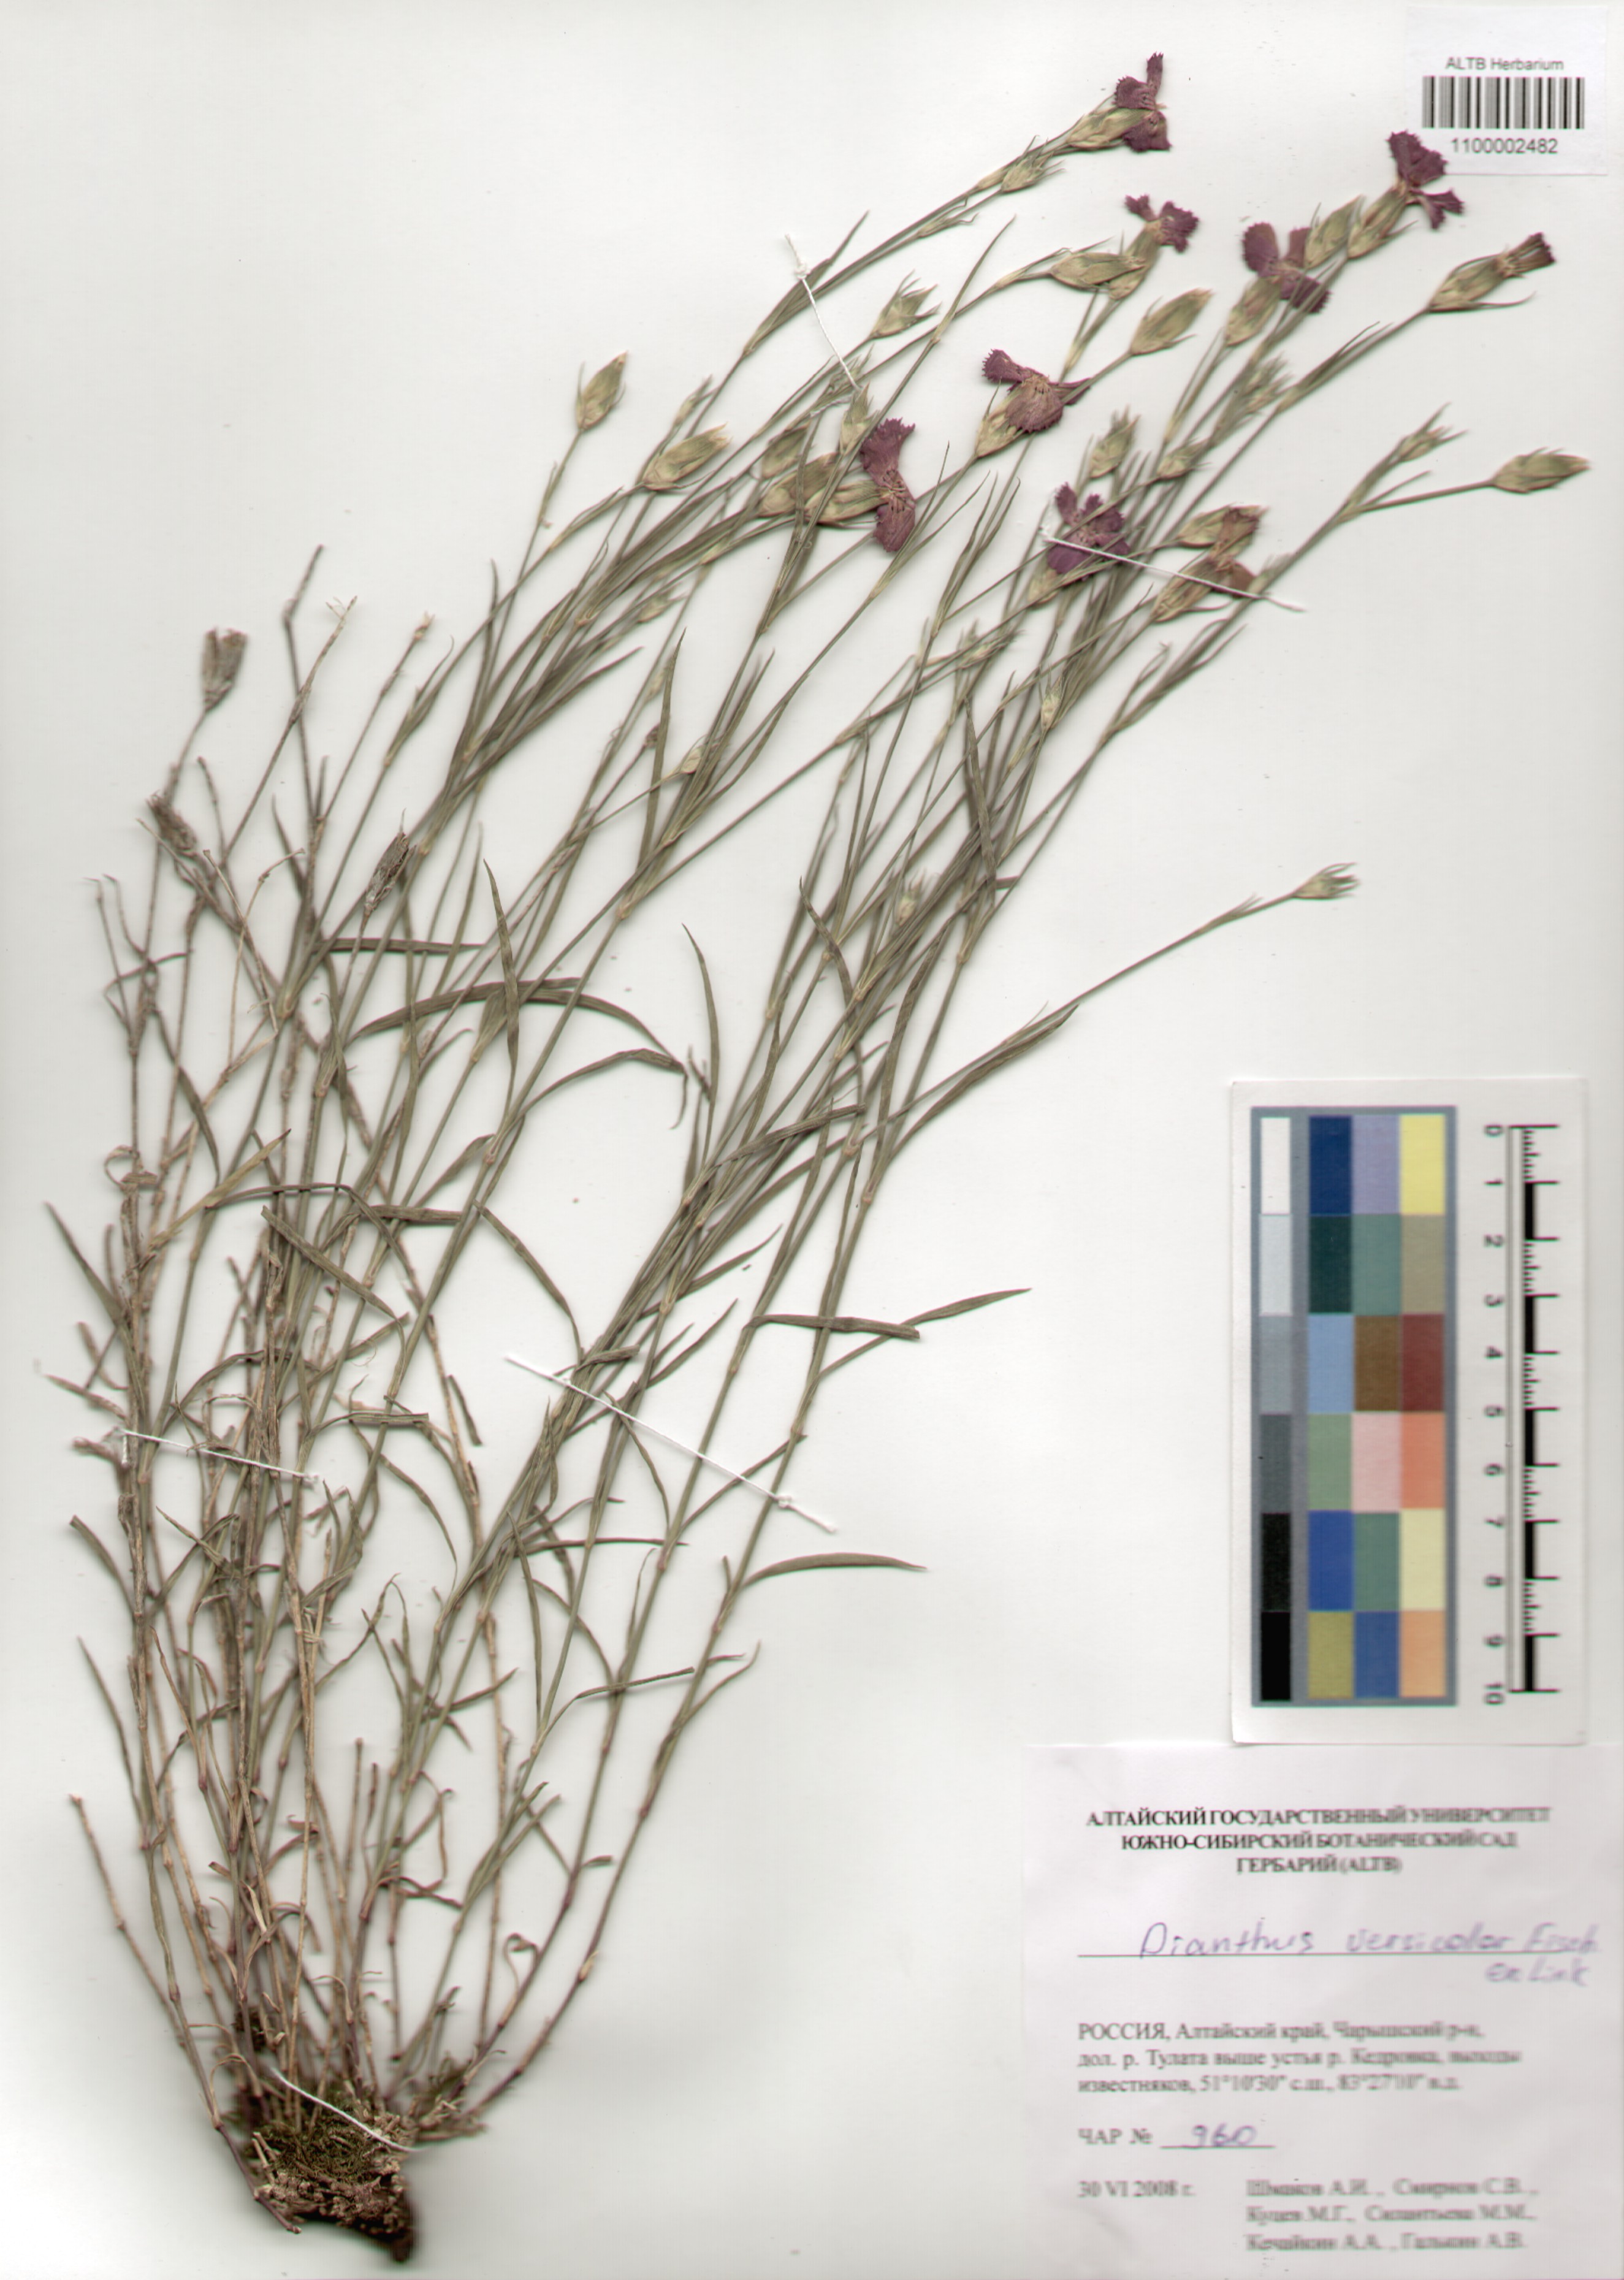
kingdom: Plantae
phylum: Tracheophyta
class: Magnoliopsida
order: Caryophyllales
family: Caryophyllaceae
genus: Dianthus
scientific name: Dianthus chinensis
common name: Rainbow pink
